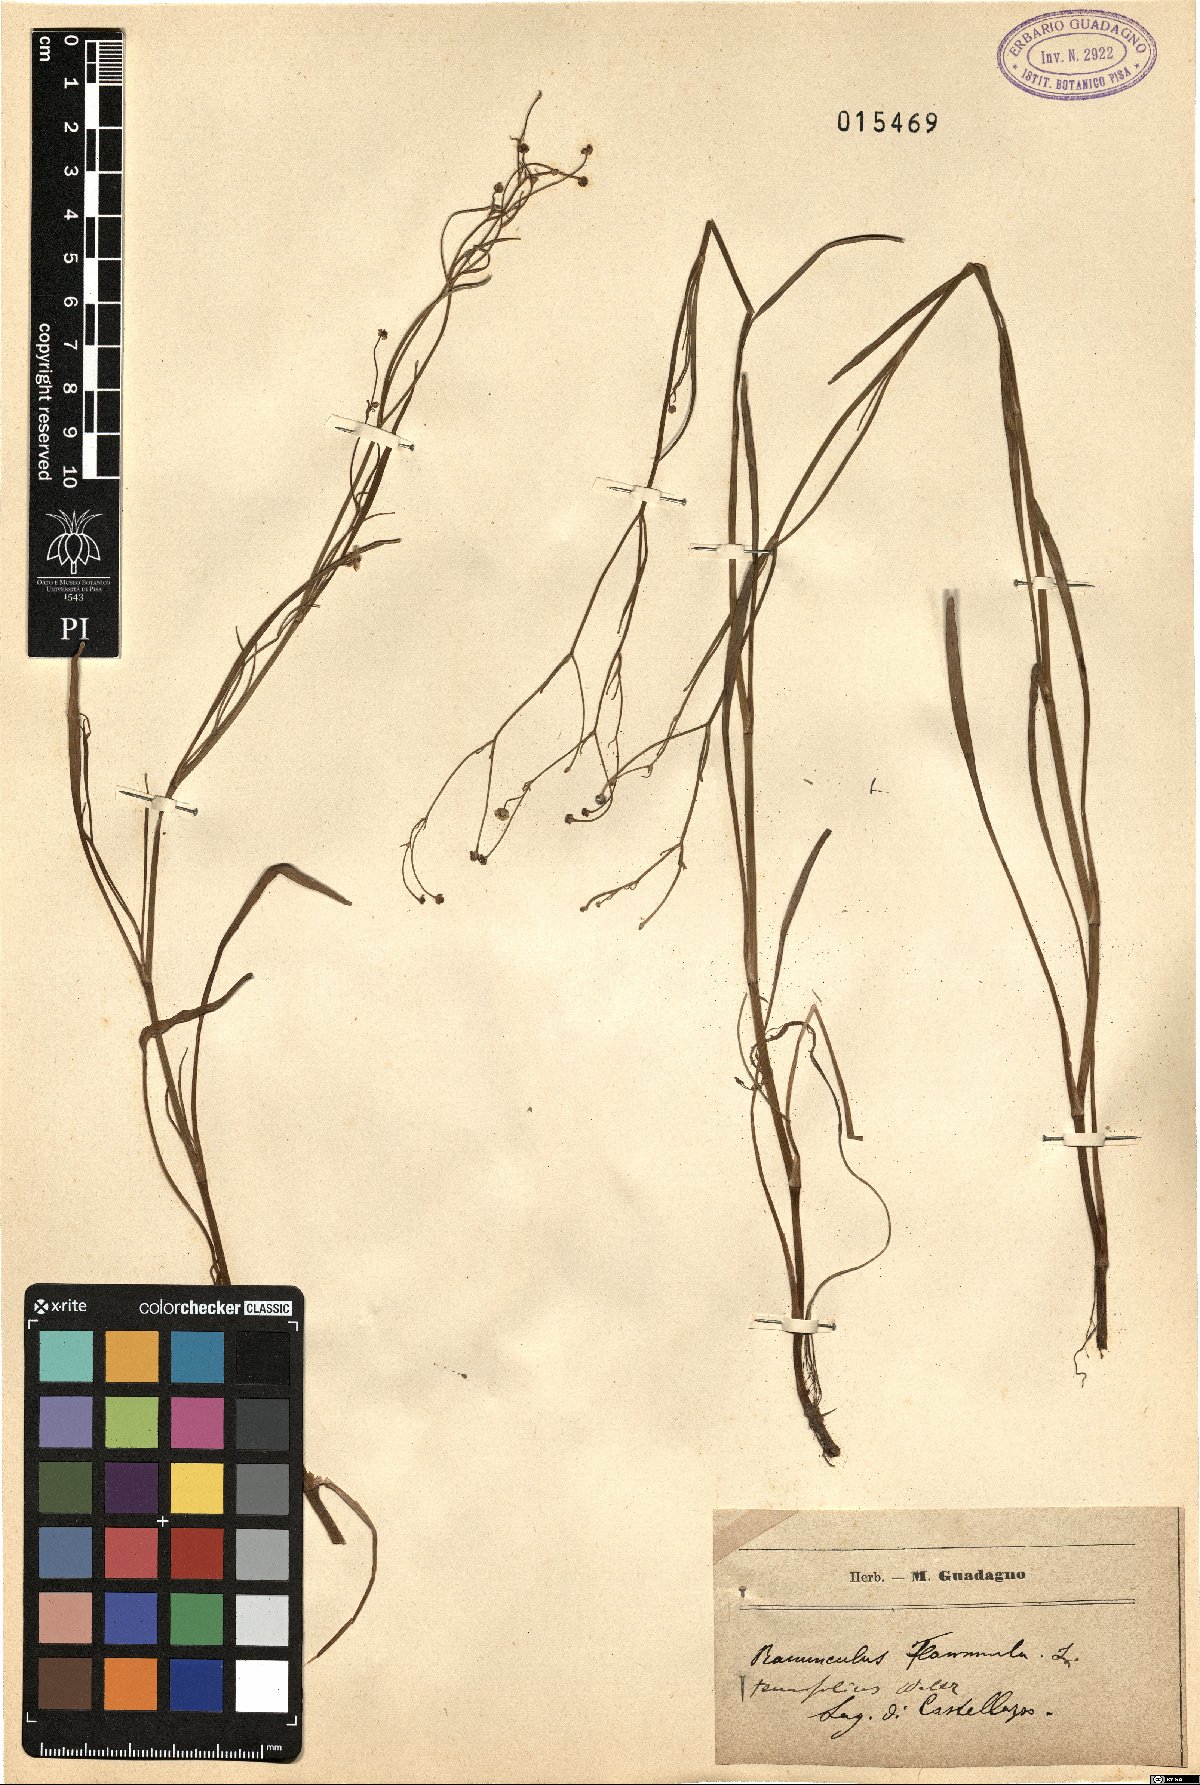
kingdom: Plantae
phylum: Tracheophyta
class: Magnoliopsida
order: Ranunculales
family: Ranunculaceae
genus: Ranunculus
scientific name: Ranunculus flammula
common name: Lesser spearwort
